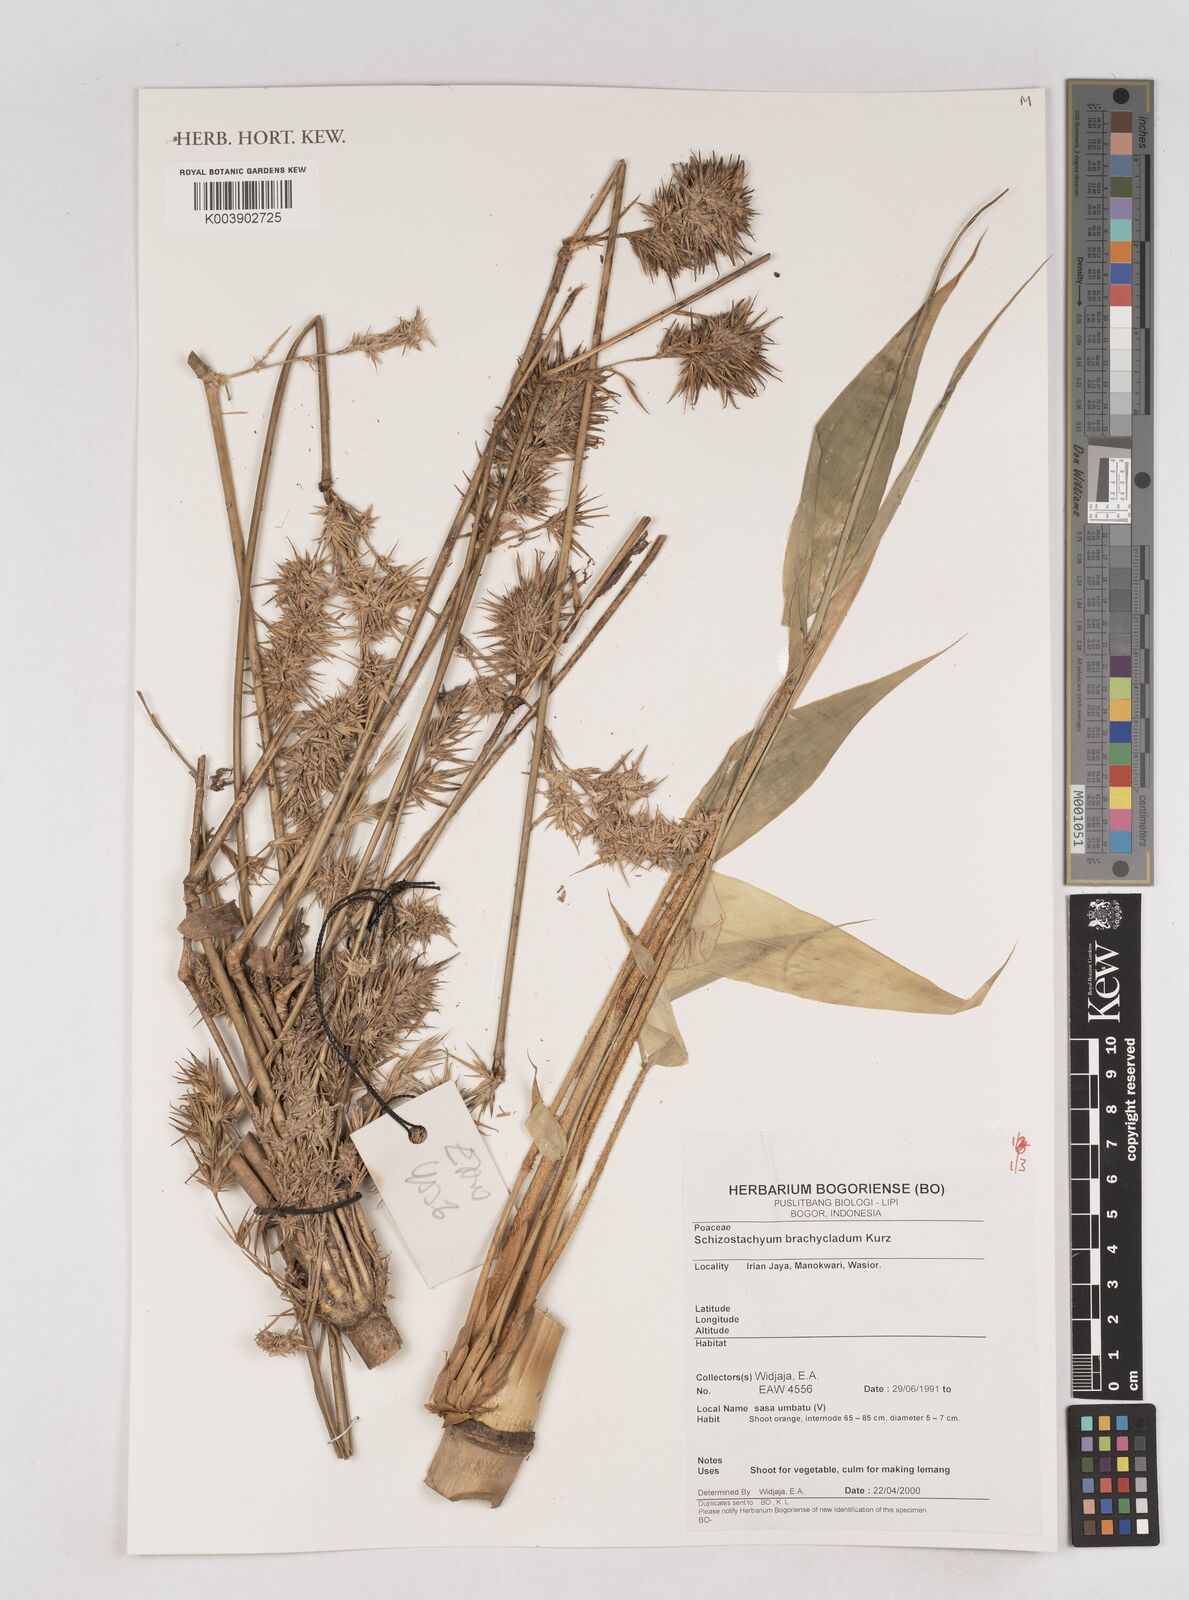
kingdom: Plantae
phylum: Tracheophyta
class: Liliopsida
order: Poales
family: Poaceae
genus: Schizostachyum
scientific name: Schizostachyum brachycladum
